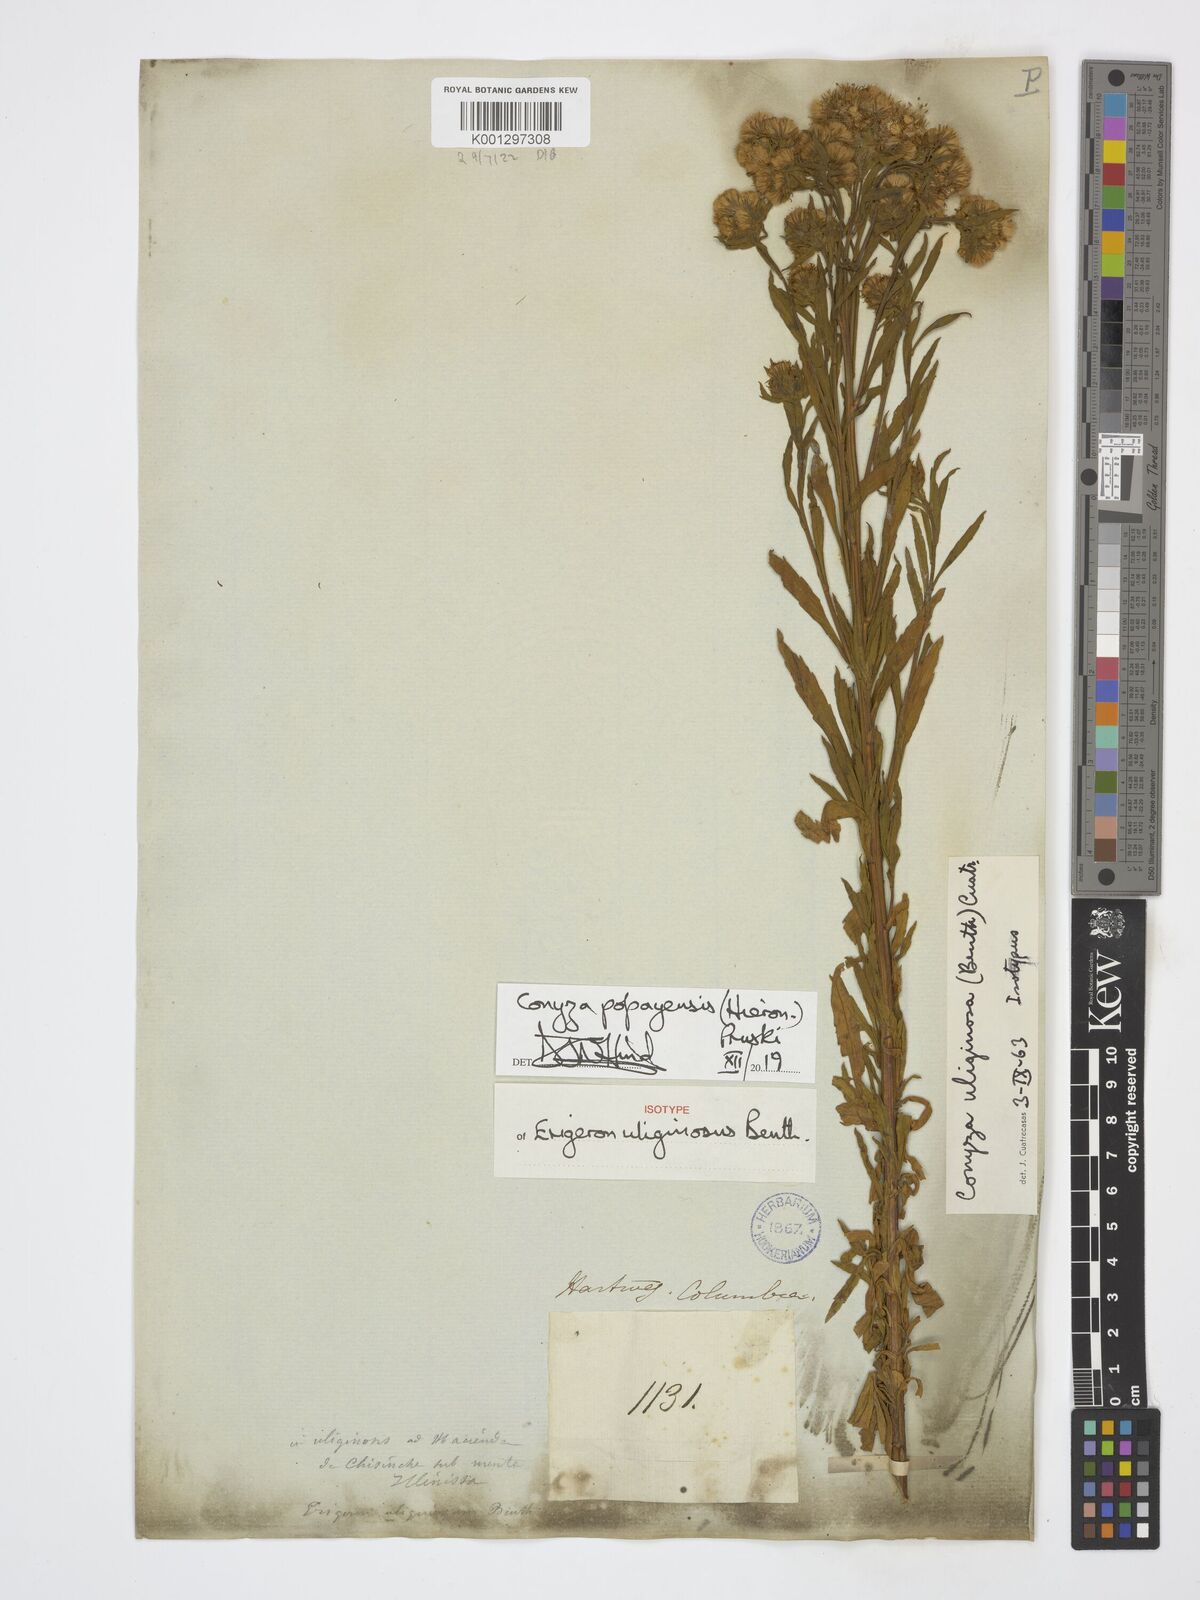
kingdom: Plantae
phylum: Tracheophyta
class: Magnoliopsida
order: Asterales
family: Asteraceae
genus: Erigeron
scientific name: Erigeron popayanensis
